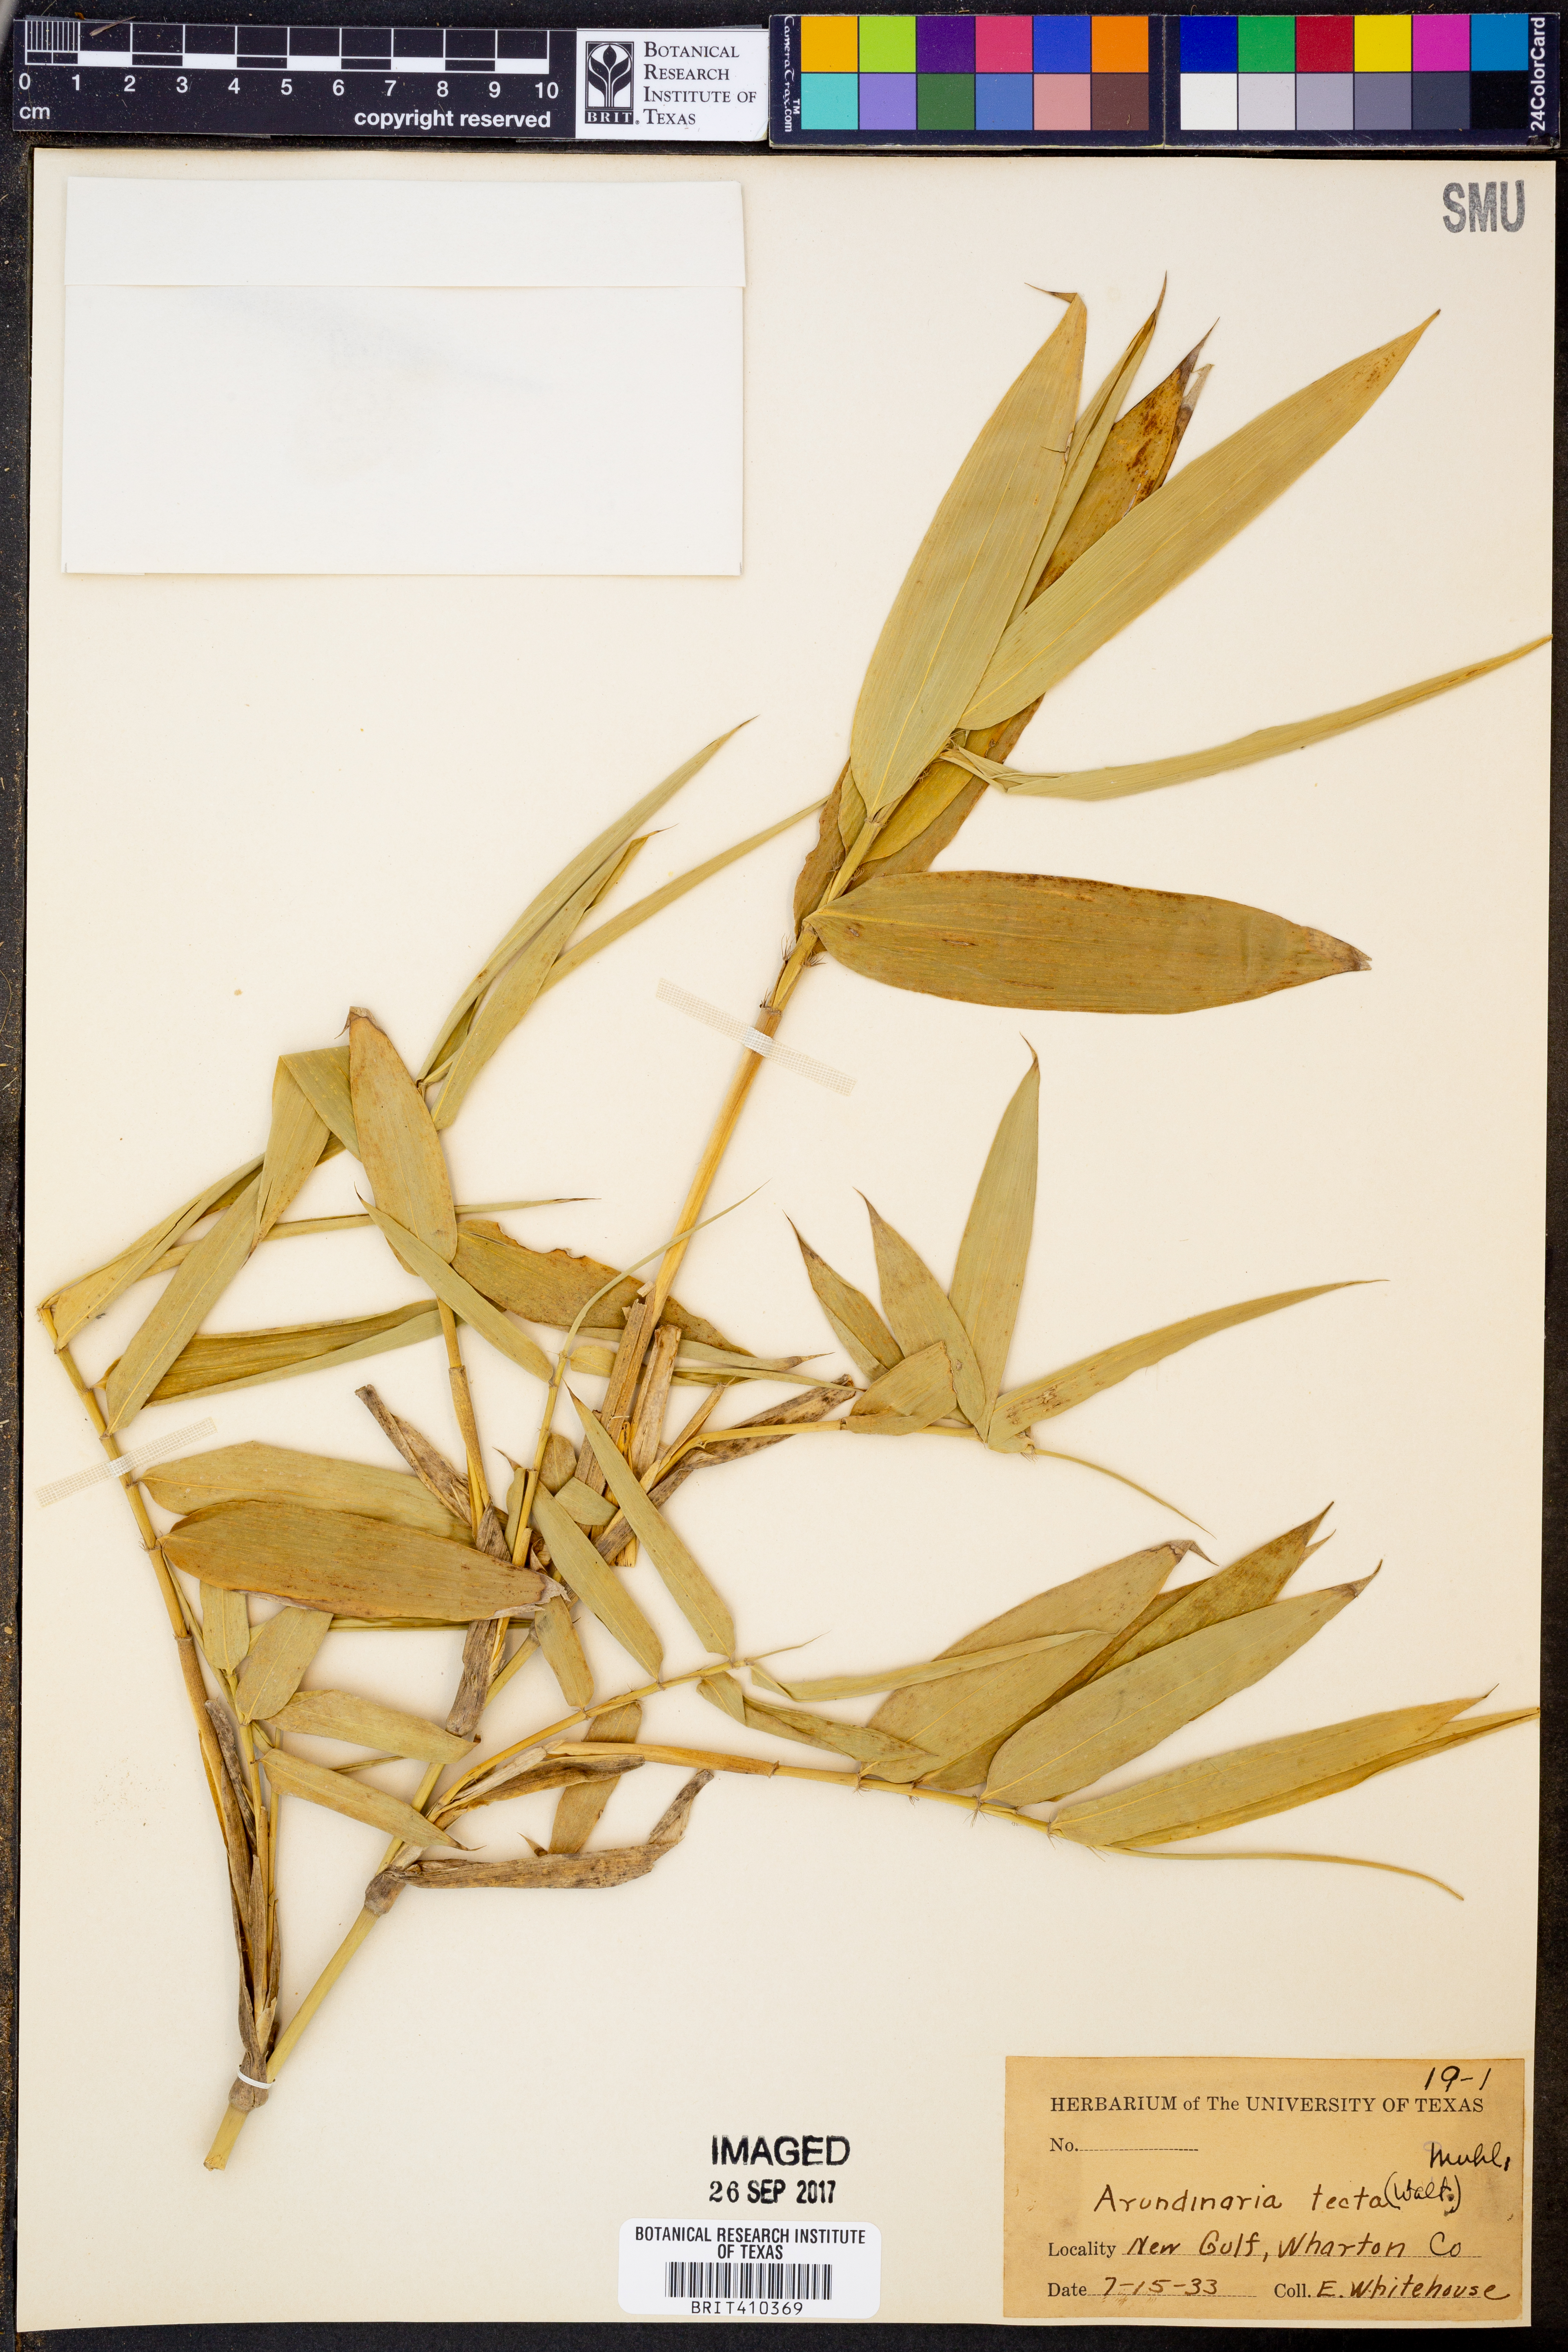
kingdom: Plantae
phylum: Tracheophyta
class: Liliopsida
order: Poales
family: Poaceae
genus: Arundinaria
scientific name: Arundinaria tecta
